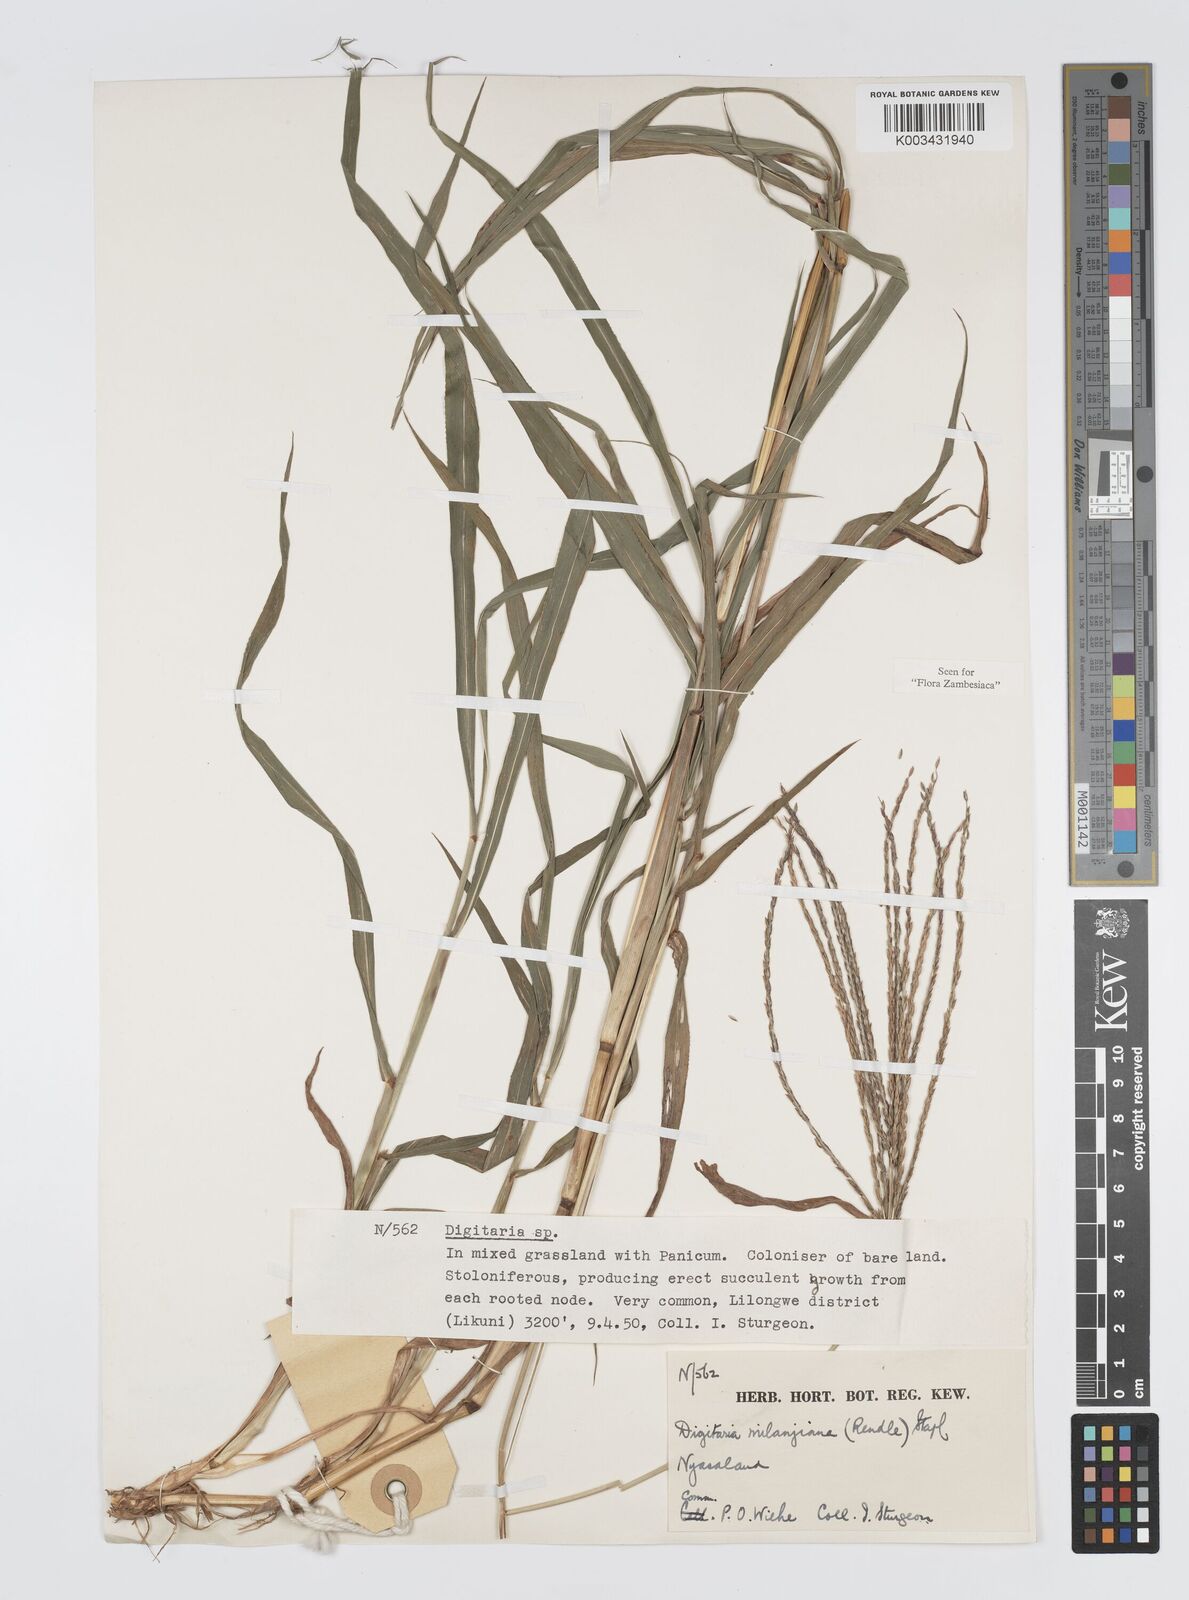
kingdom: Plantae
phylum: Tracheophyta
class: Liliopsida
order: Poales
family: Poaceae
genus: Digitaria
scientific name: Digitaria milanjiana
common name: Madagascar crabgrass
